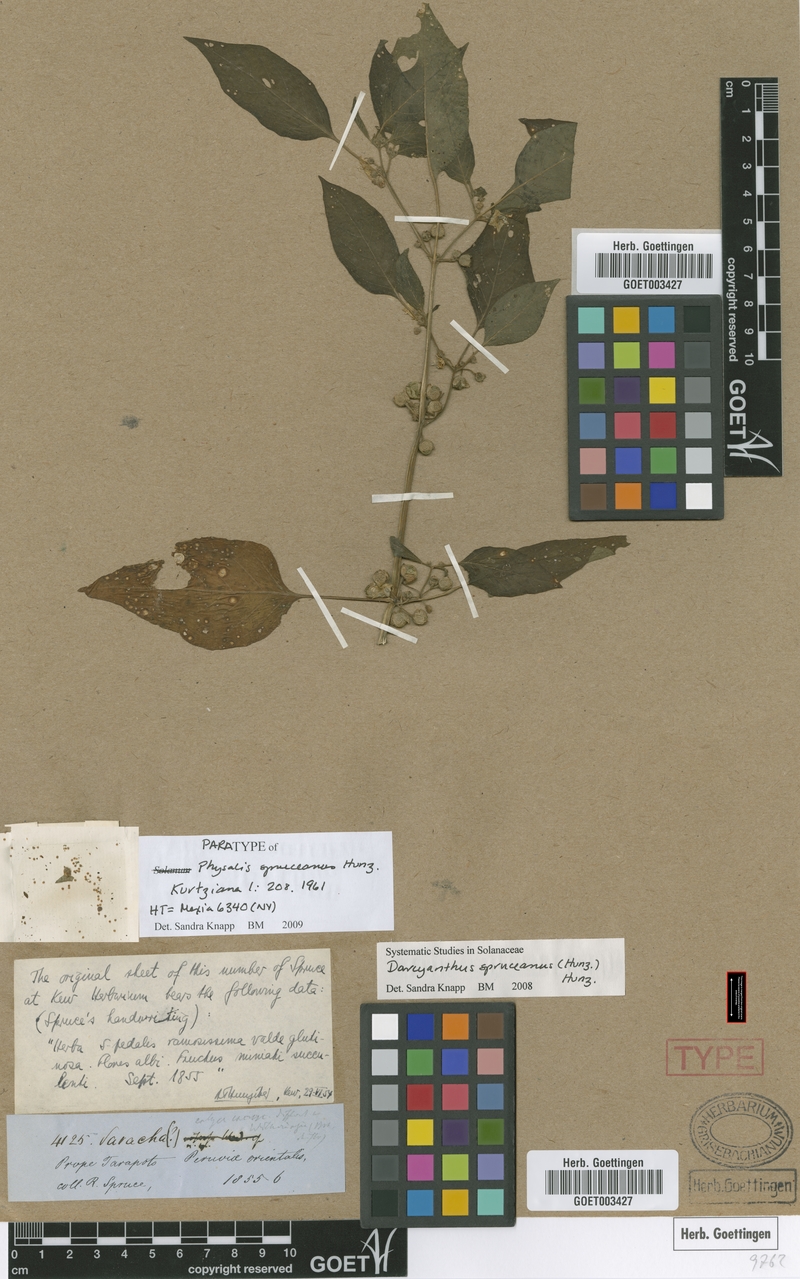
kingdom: Plantae
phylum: Tracheophyta
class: Magnoliopsida
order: Solanales
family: Solanaceae
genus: Darcyanthus
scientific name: Darcyanthus spruceanus
